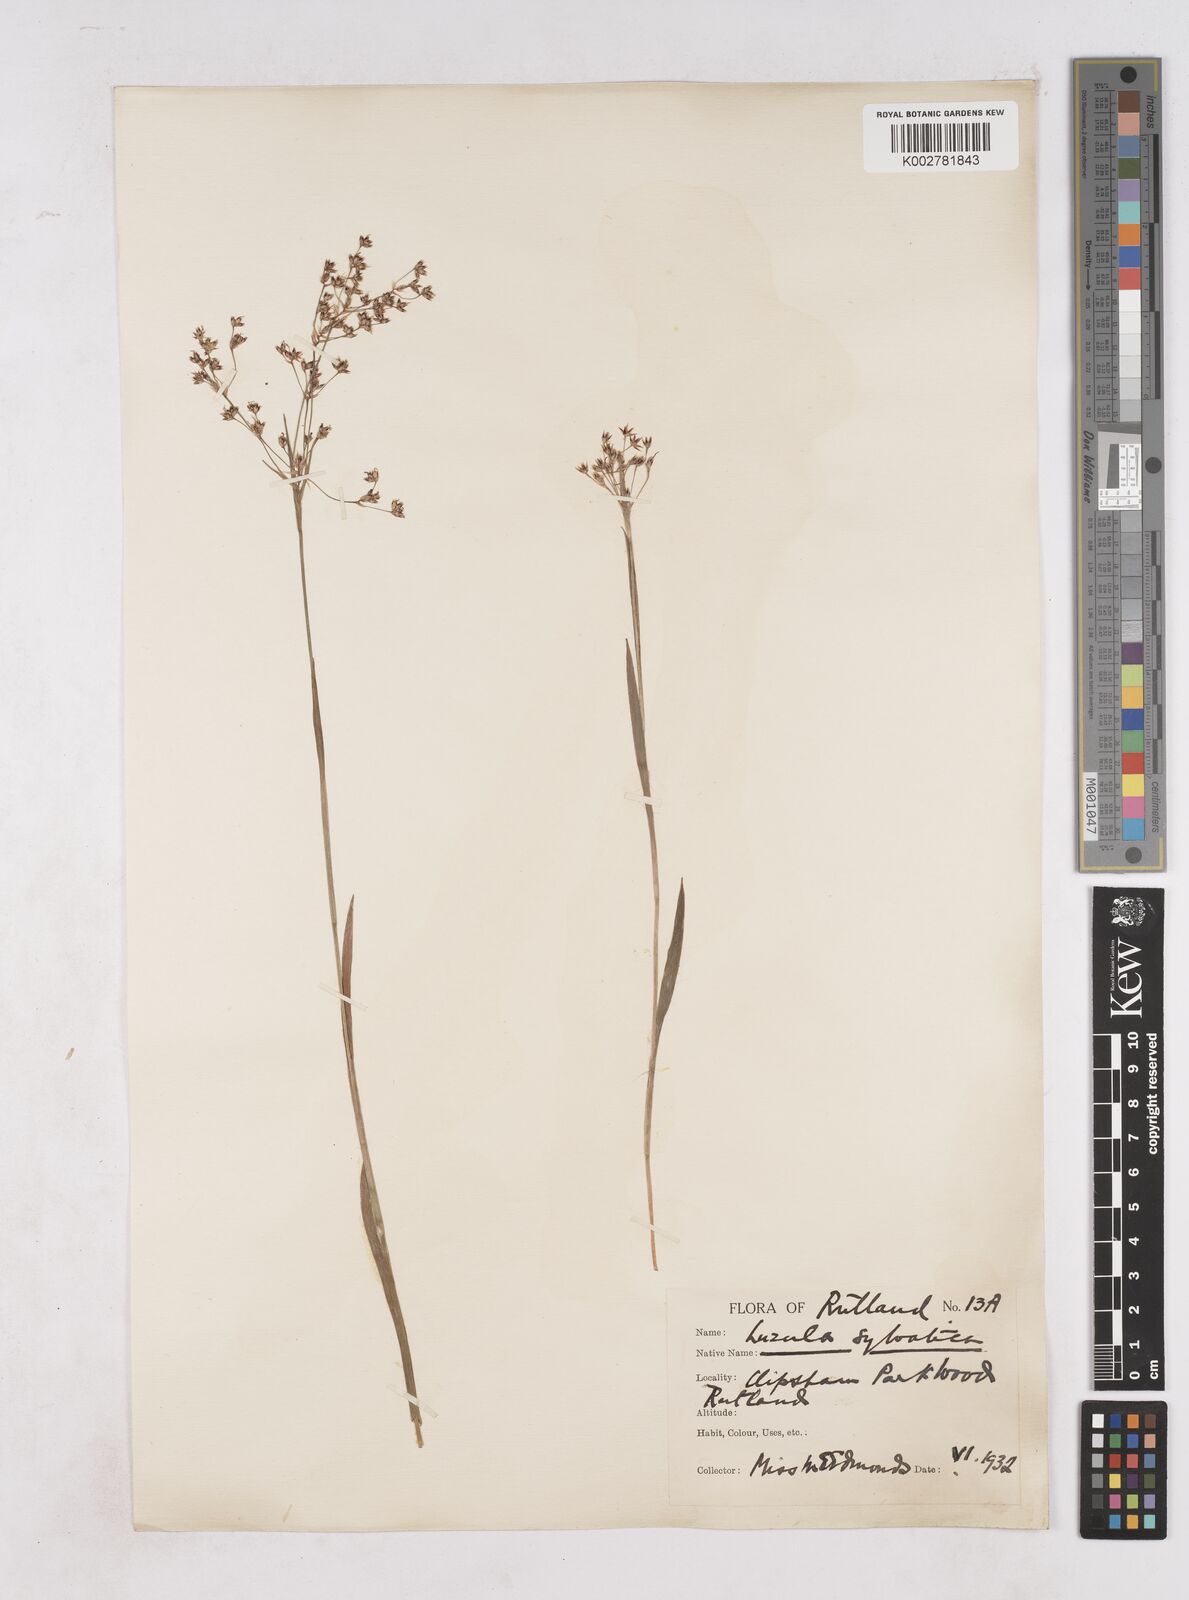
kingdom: Plantae
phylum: Tracheophyta
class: Liliopsida
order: Poales
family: Juncaceae
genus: Luzula
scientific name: Luzula sylvatica
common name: Great wood-rush
